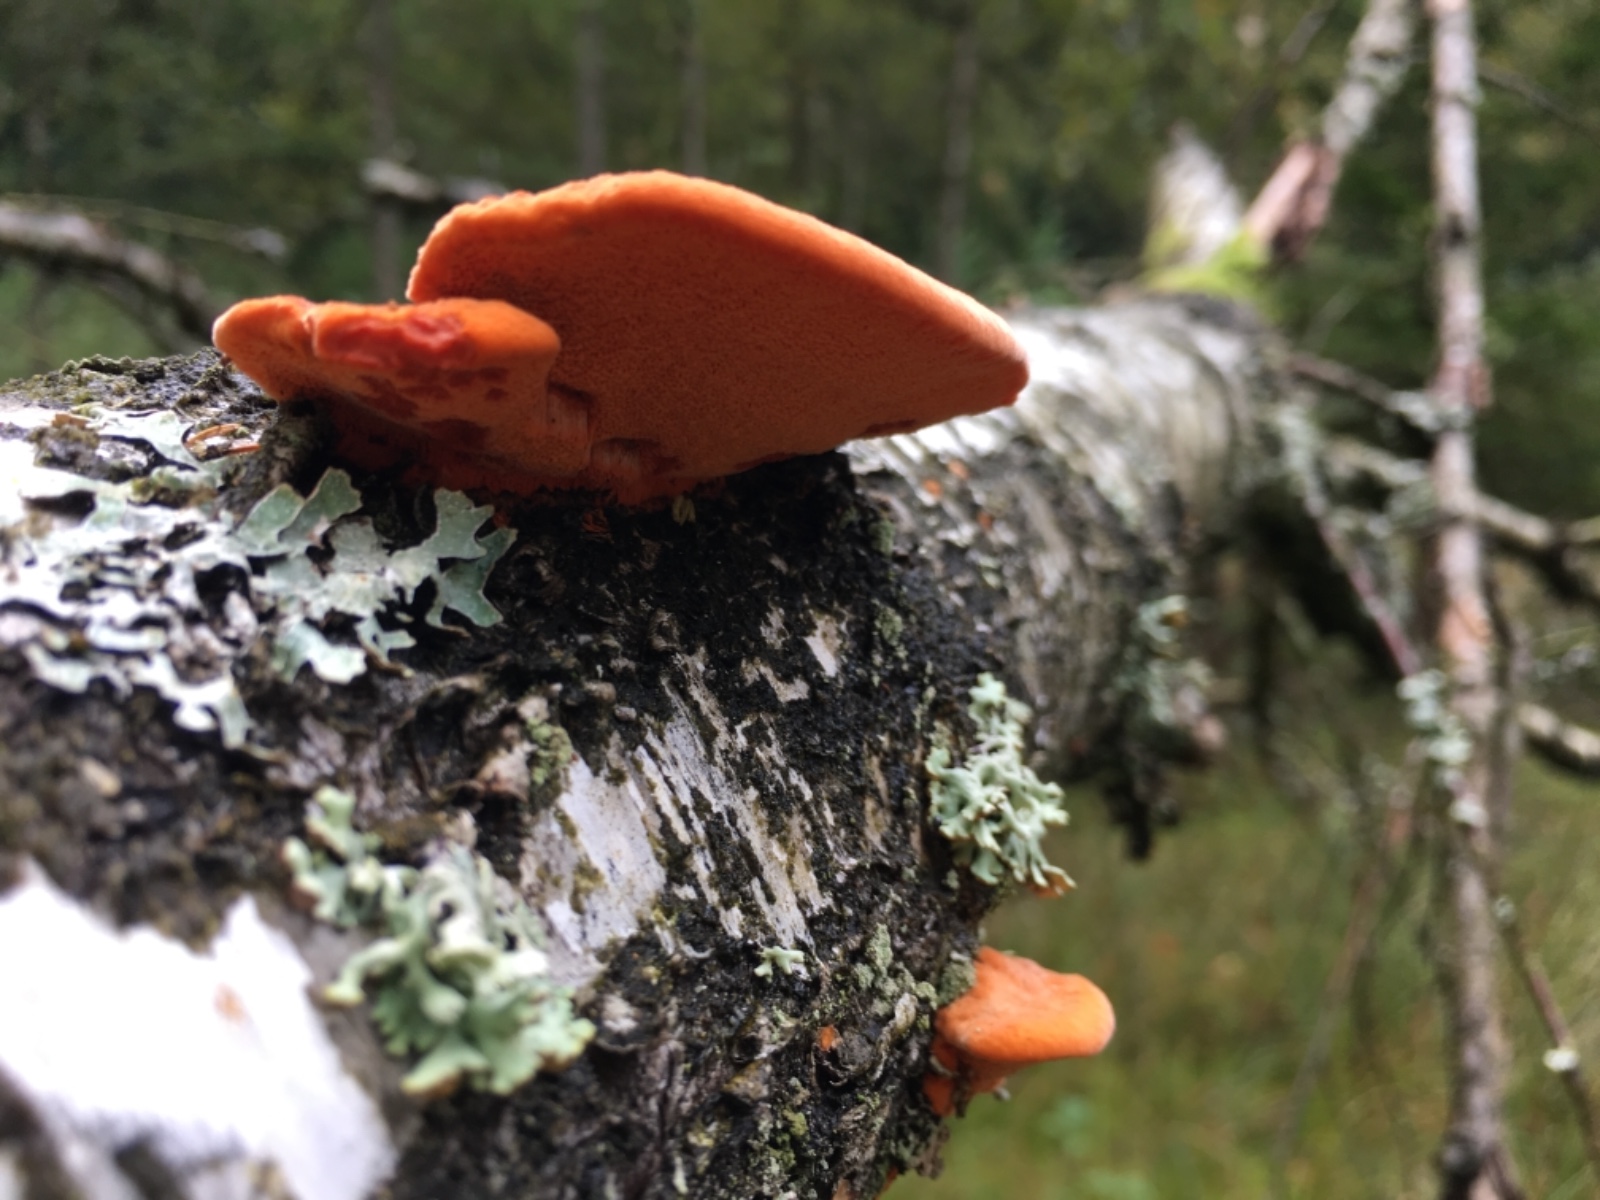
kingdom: Fungi
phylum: Basidiomycota
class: Agaricomycetes
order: Polyporales
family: Polyporaceae
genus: Trametes
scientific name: Trametes cinnabarina
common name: cinnoberporesvamp
